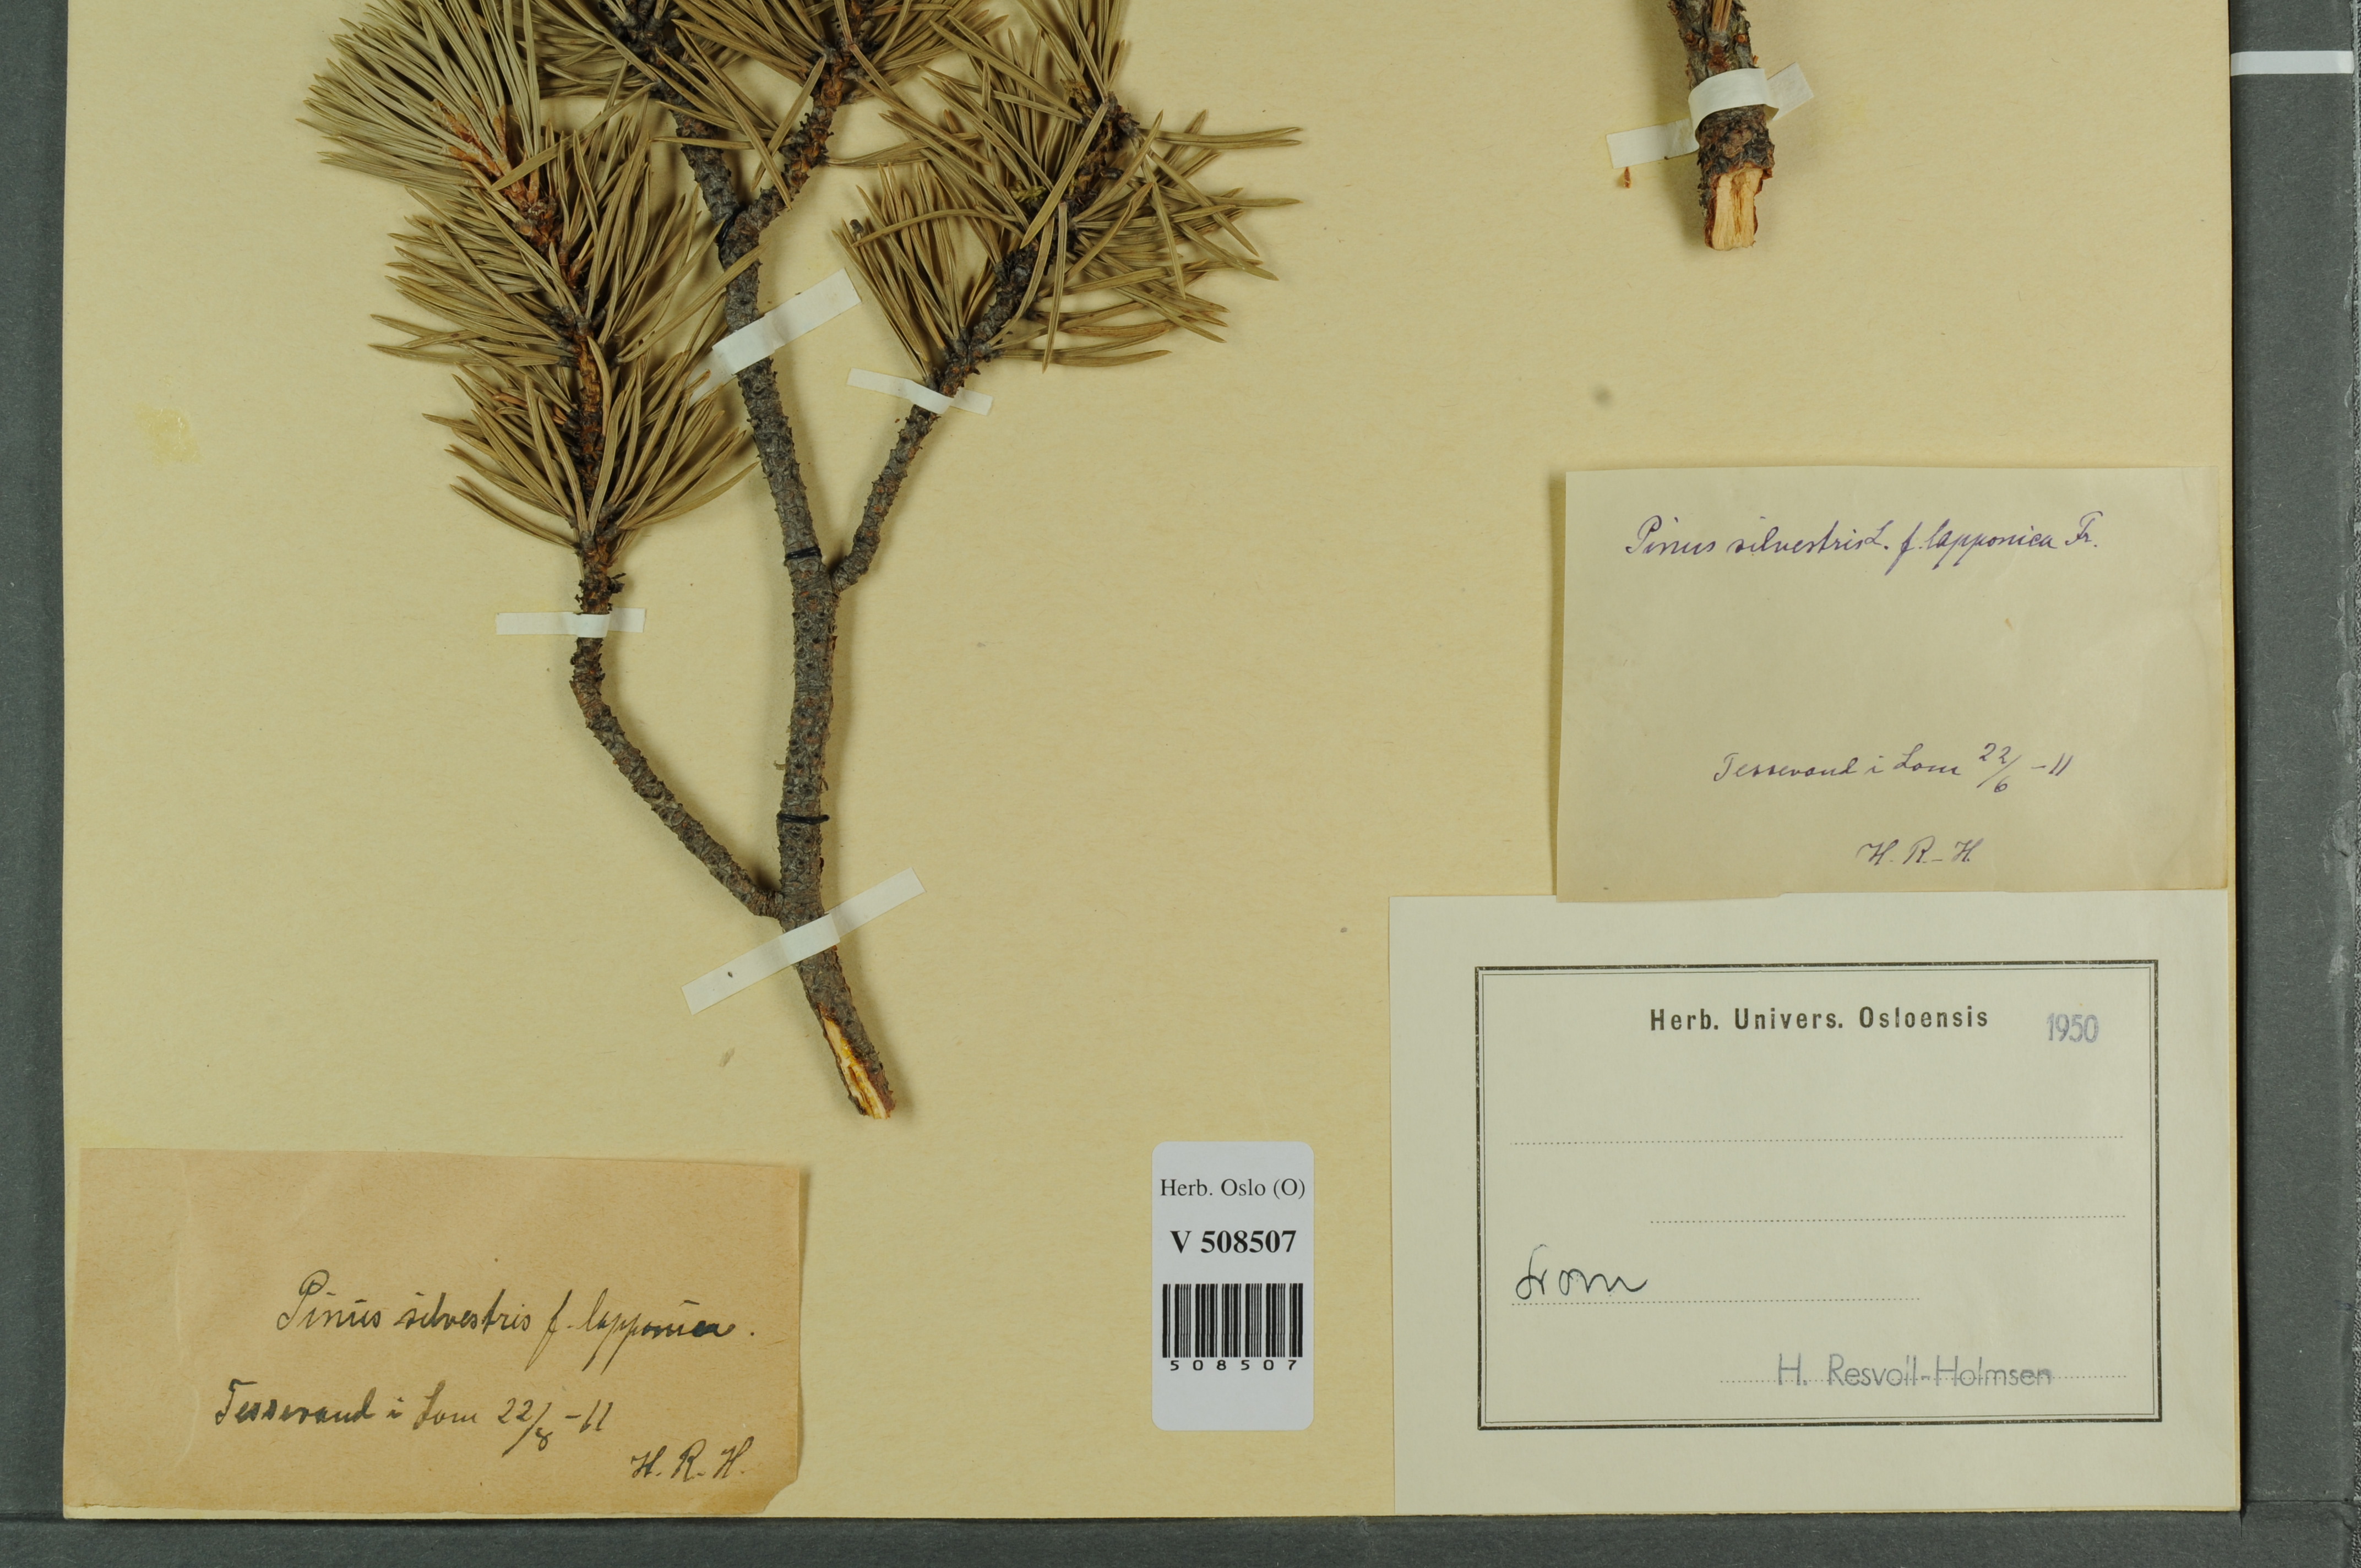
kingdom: Plantae
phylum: Tracheophyta
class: Pinopsida
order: Pinales
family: Pinaceae
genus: Pinus
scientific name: Pinus sylvestris
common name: Scots pine
